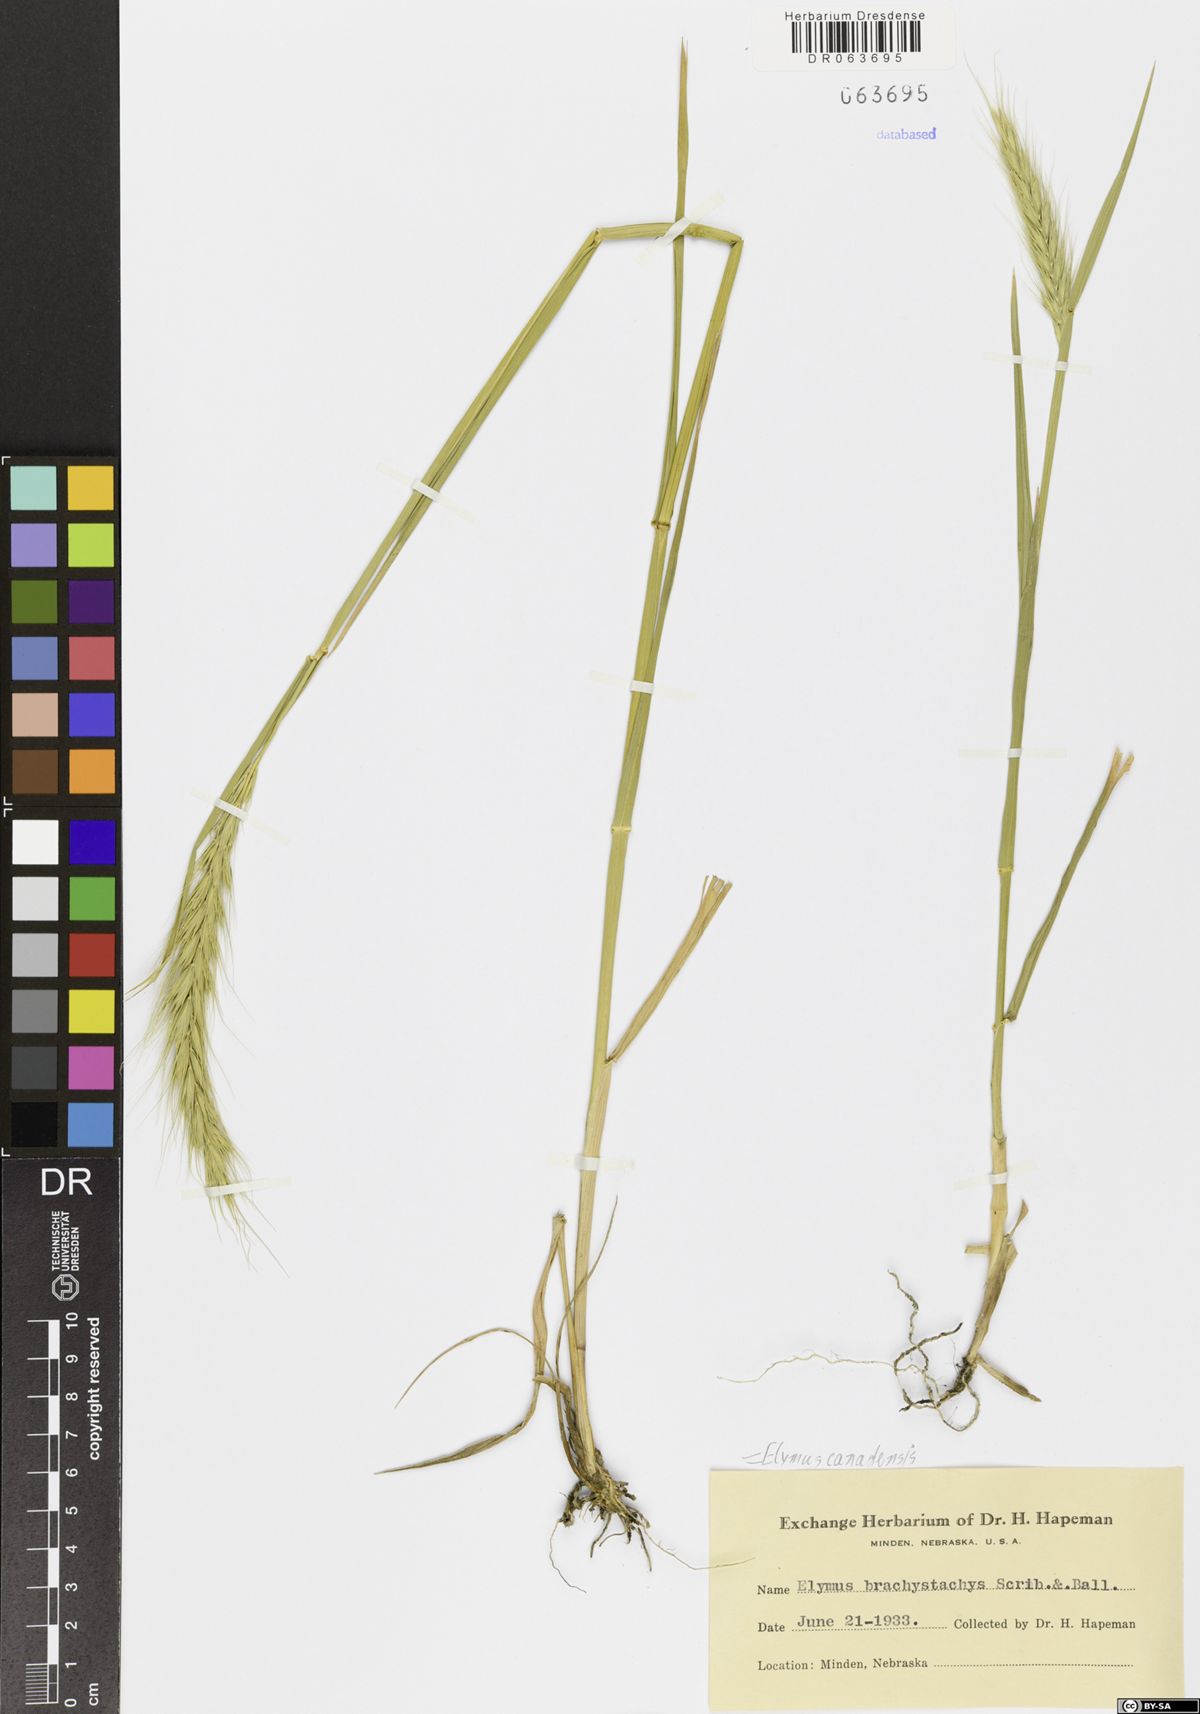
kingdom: Plantae
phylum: Tracheophyta
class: Liliopsida
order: Poales
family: Poaceae
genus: Elymus
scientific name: Elymus canadensis
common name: Canada wild rye
